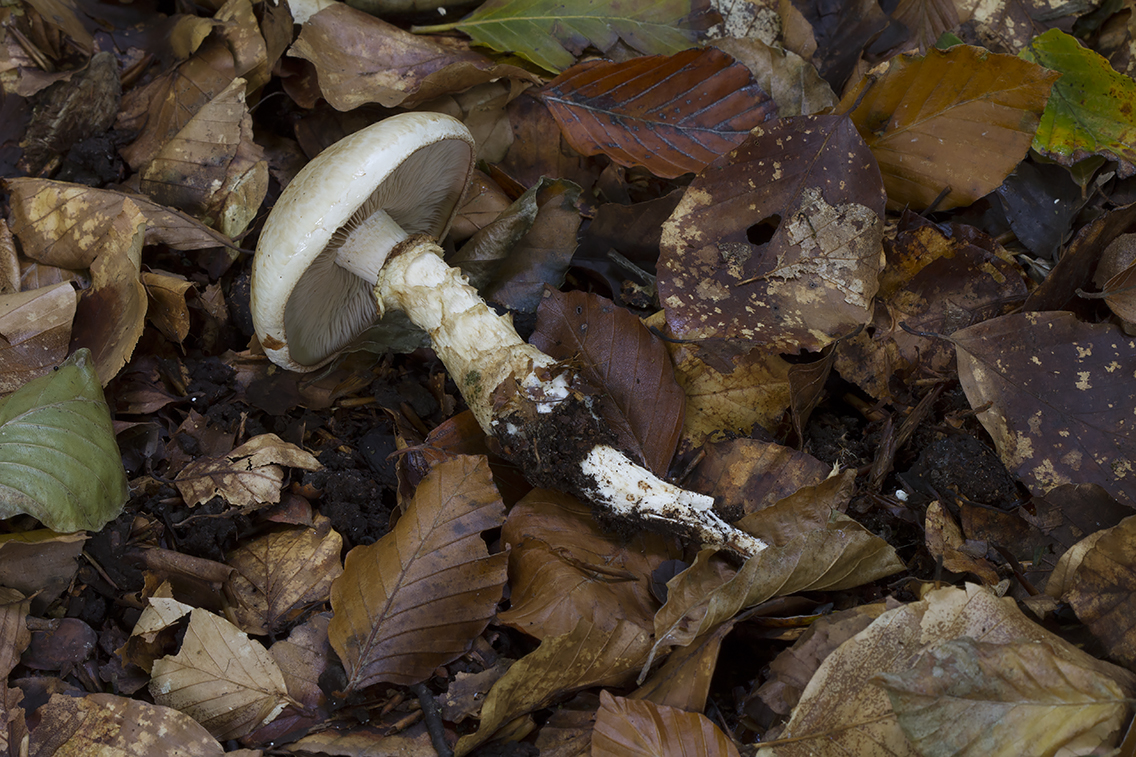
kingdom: Fungi
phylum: Basidiomycota
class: Agaricomycetes
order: Agaricales
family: Hymenogastraceae
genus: Hebeloma
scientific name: Hebeloma radicosum
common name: pælerods-tåreblad
